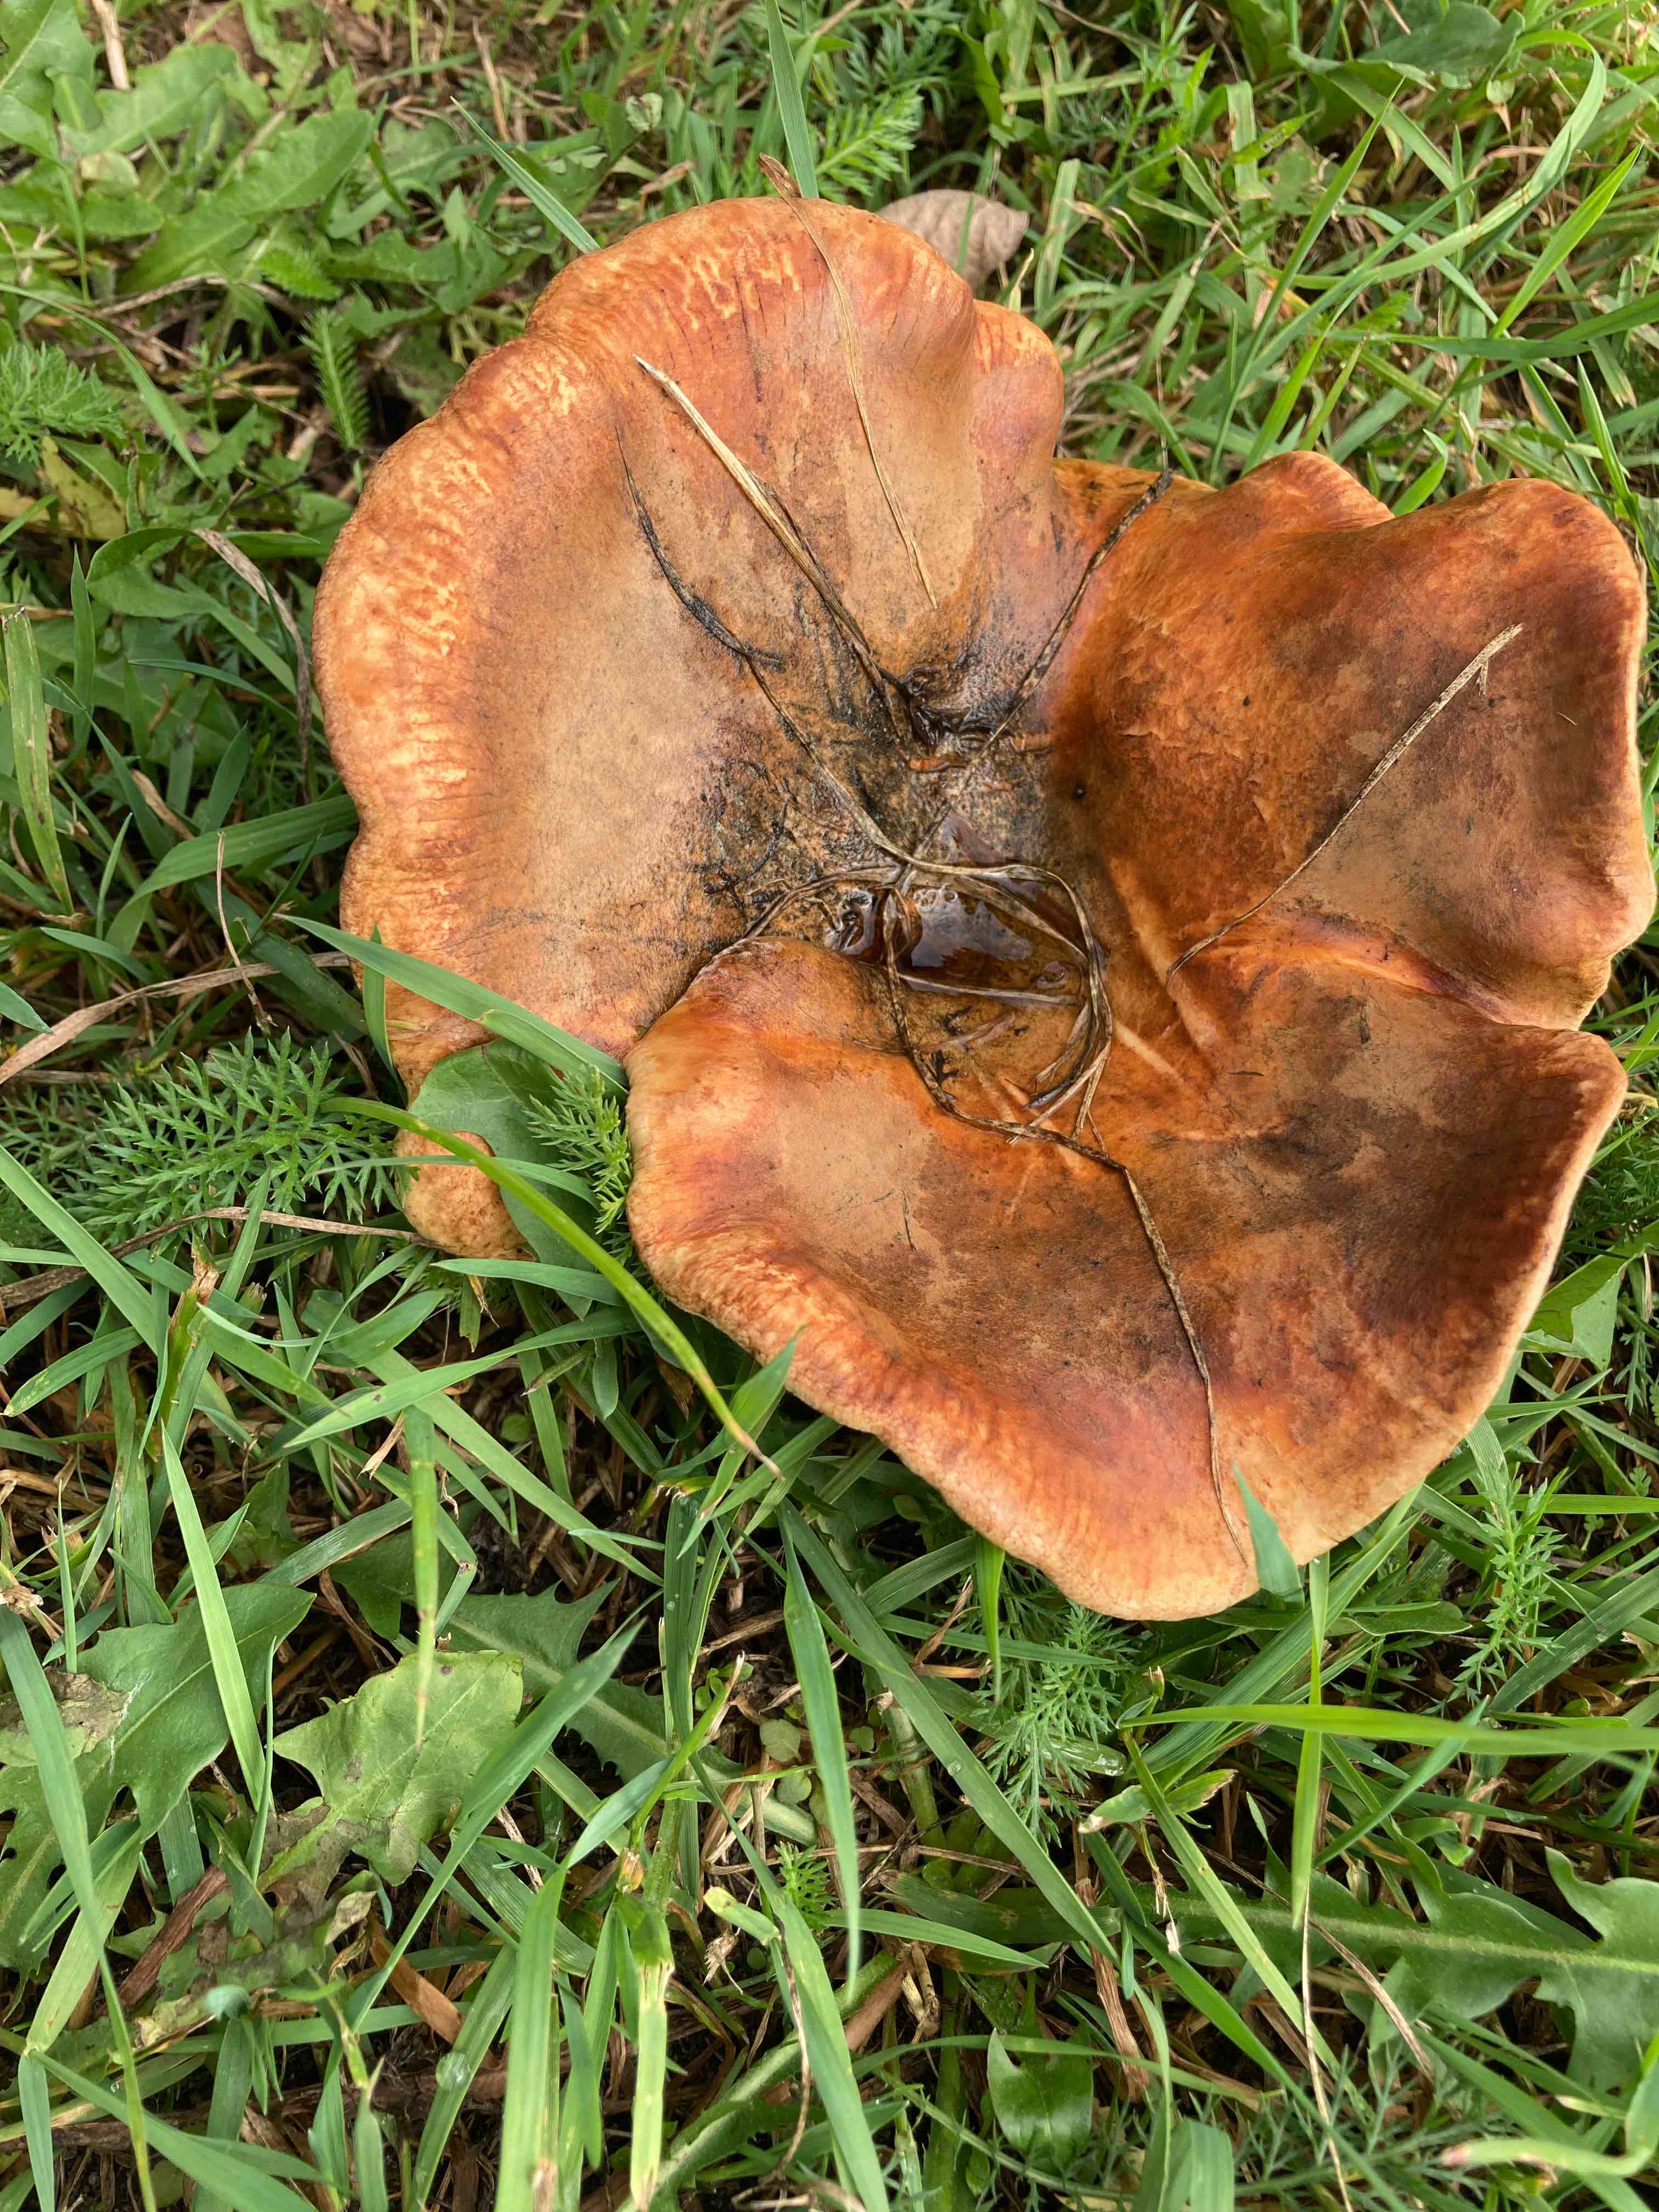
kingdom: Fungi
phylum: Basidiomycota
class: Agaricomycetes
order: Boletales
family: Paxillaceae
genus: Paxillus
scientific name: Paxillus
